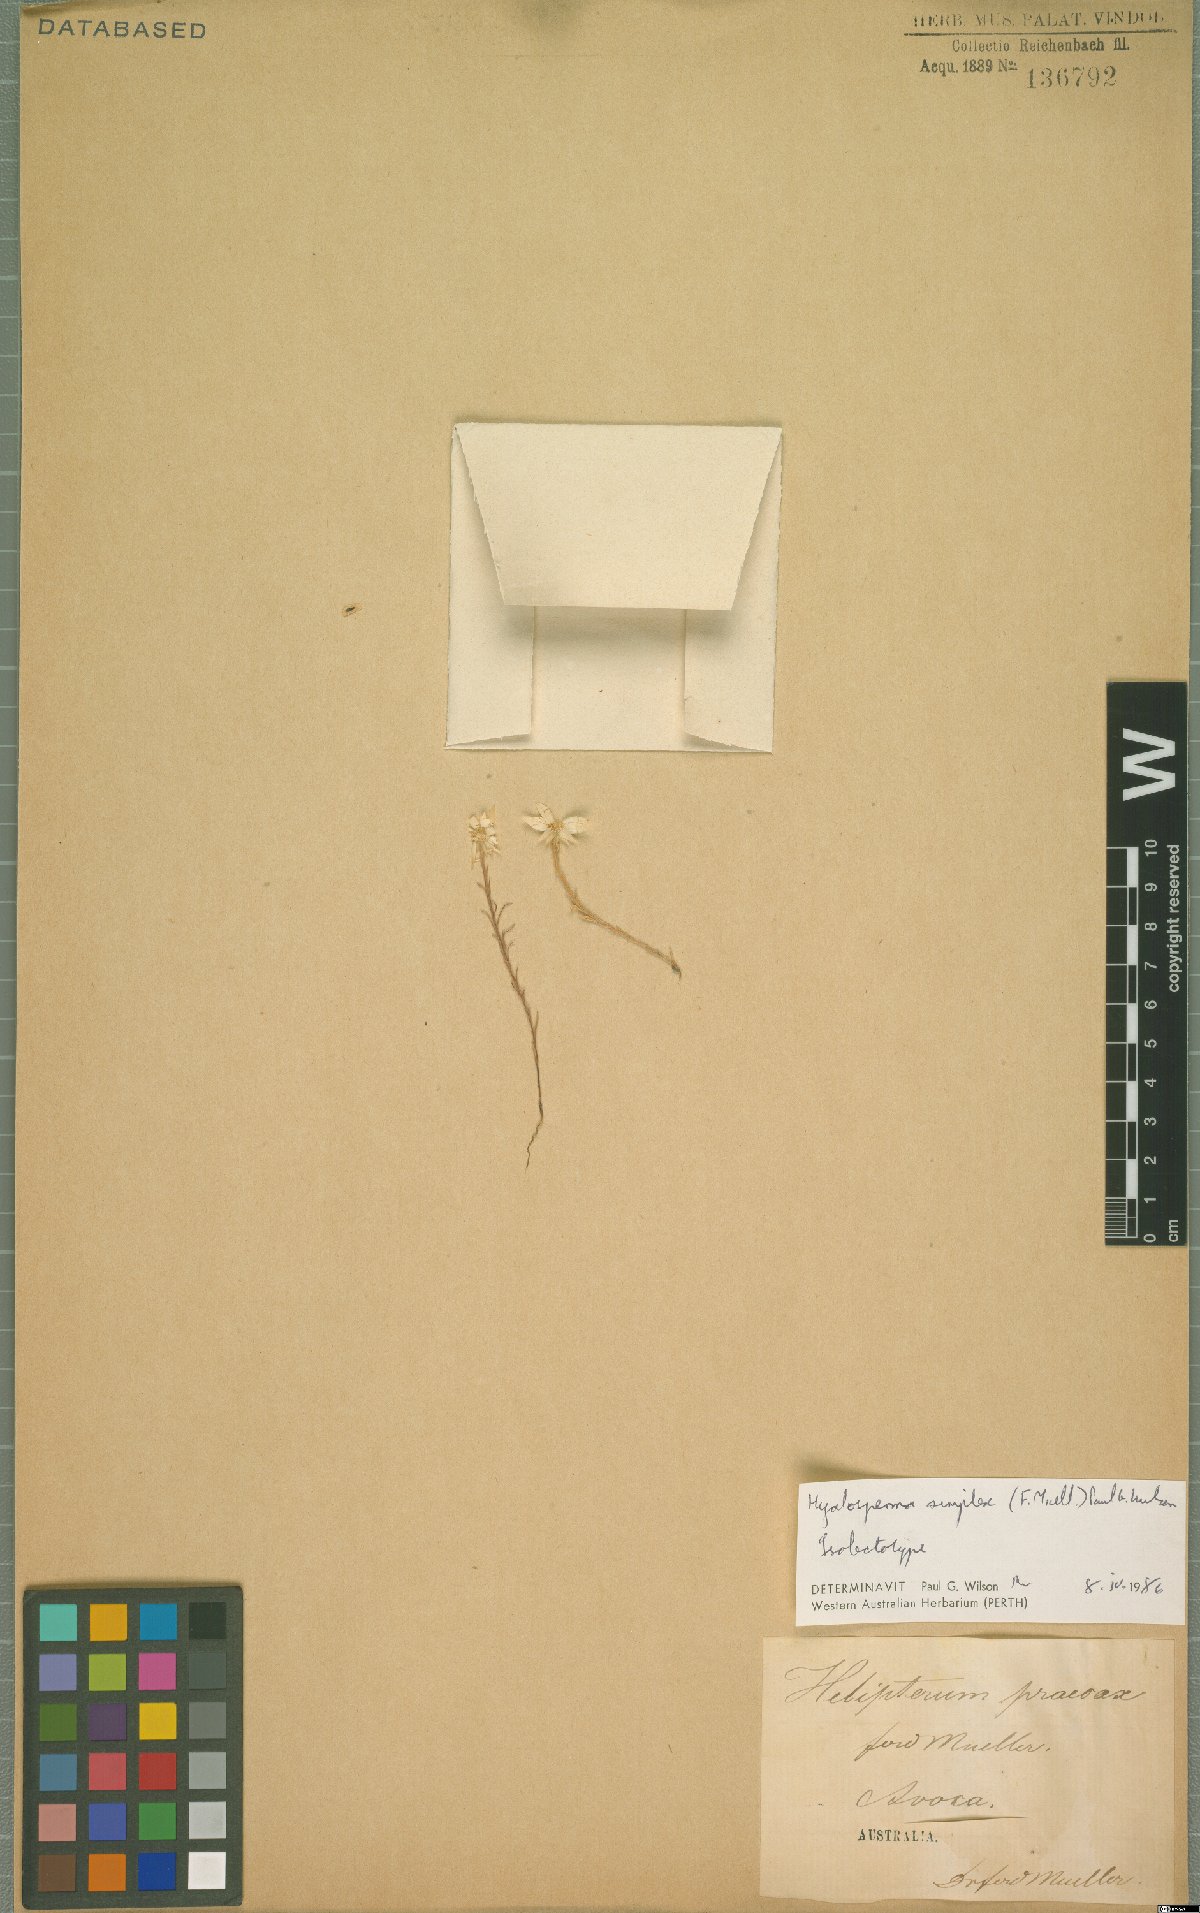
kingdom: Plantae
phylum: Tracheophyta
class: Magnoliopsida
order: Asterales
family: Asteraceae
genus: Hyalosperma
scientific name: Hyalosperma simplex
